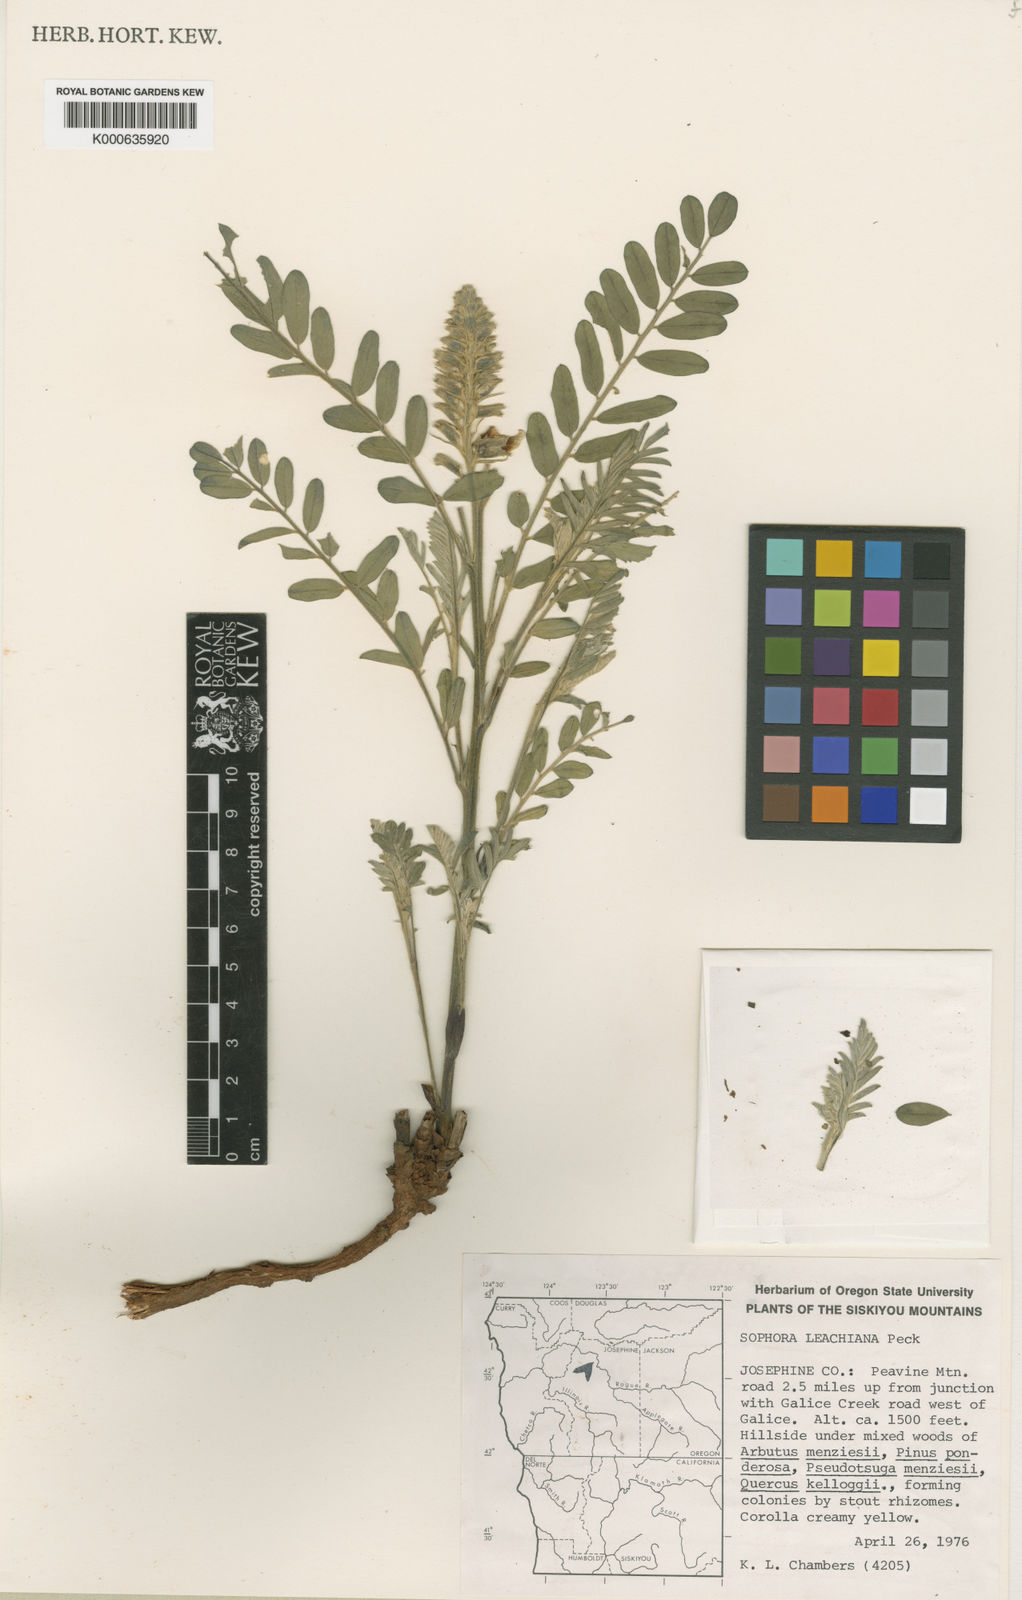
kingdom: Plantae
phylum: Tracheophyta
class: Magnoliopsida
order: Fabales
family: Fabaceae
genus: Sophora
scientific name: Sophora leachiana
